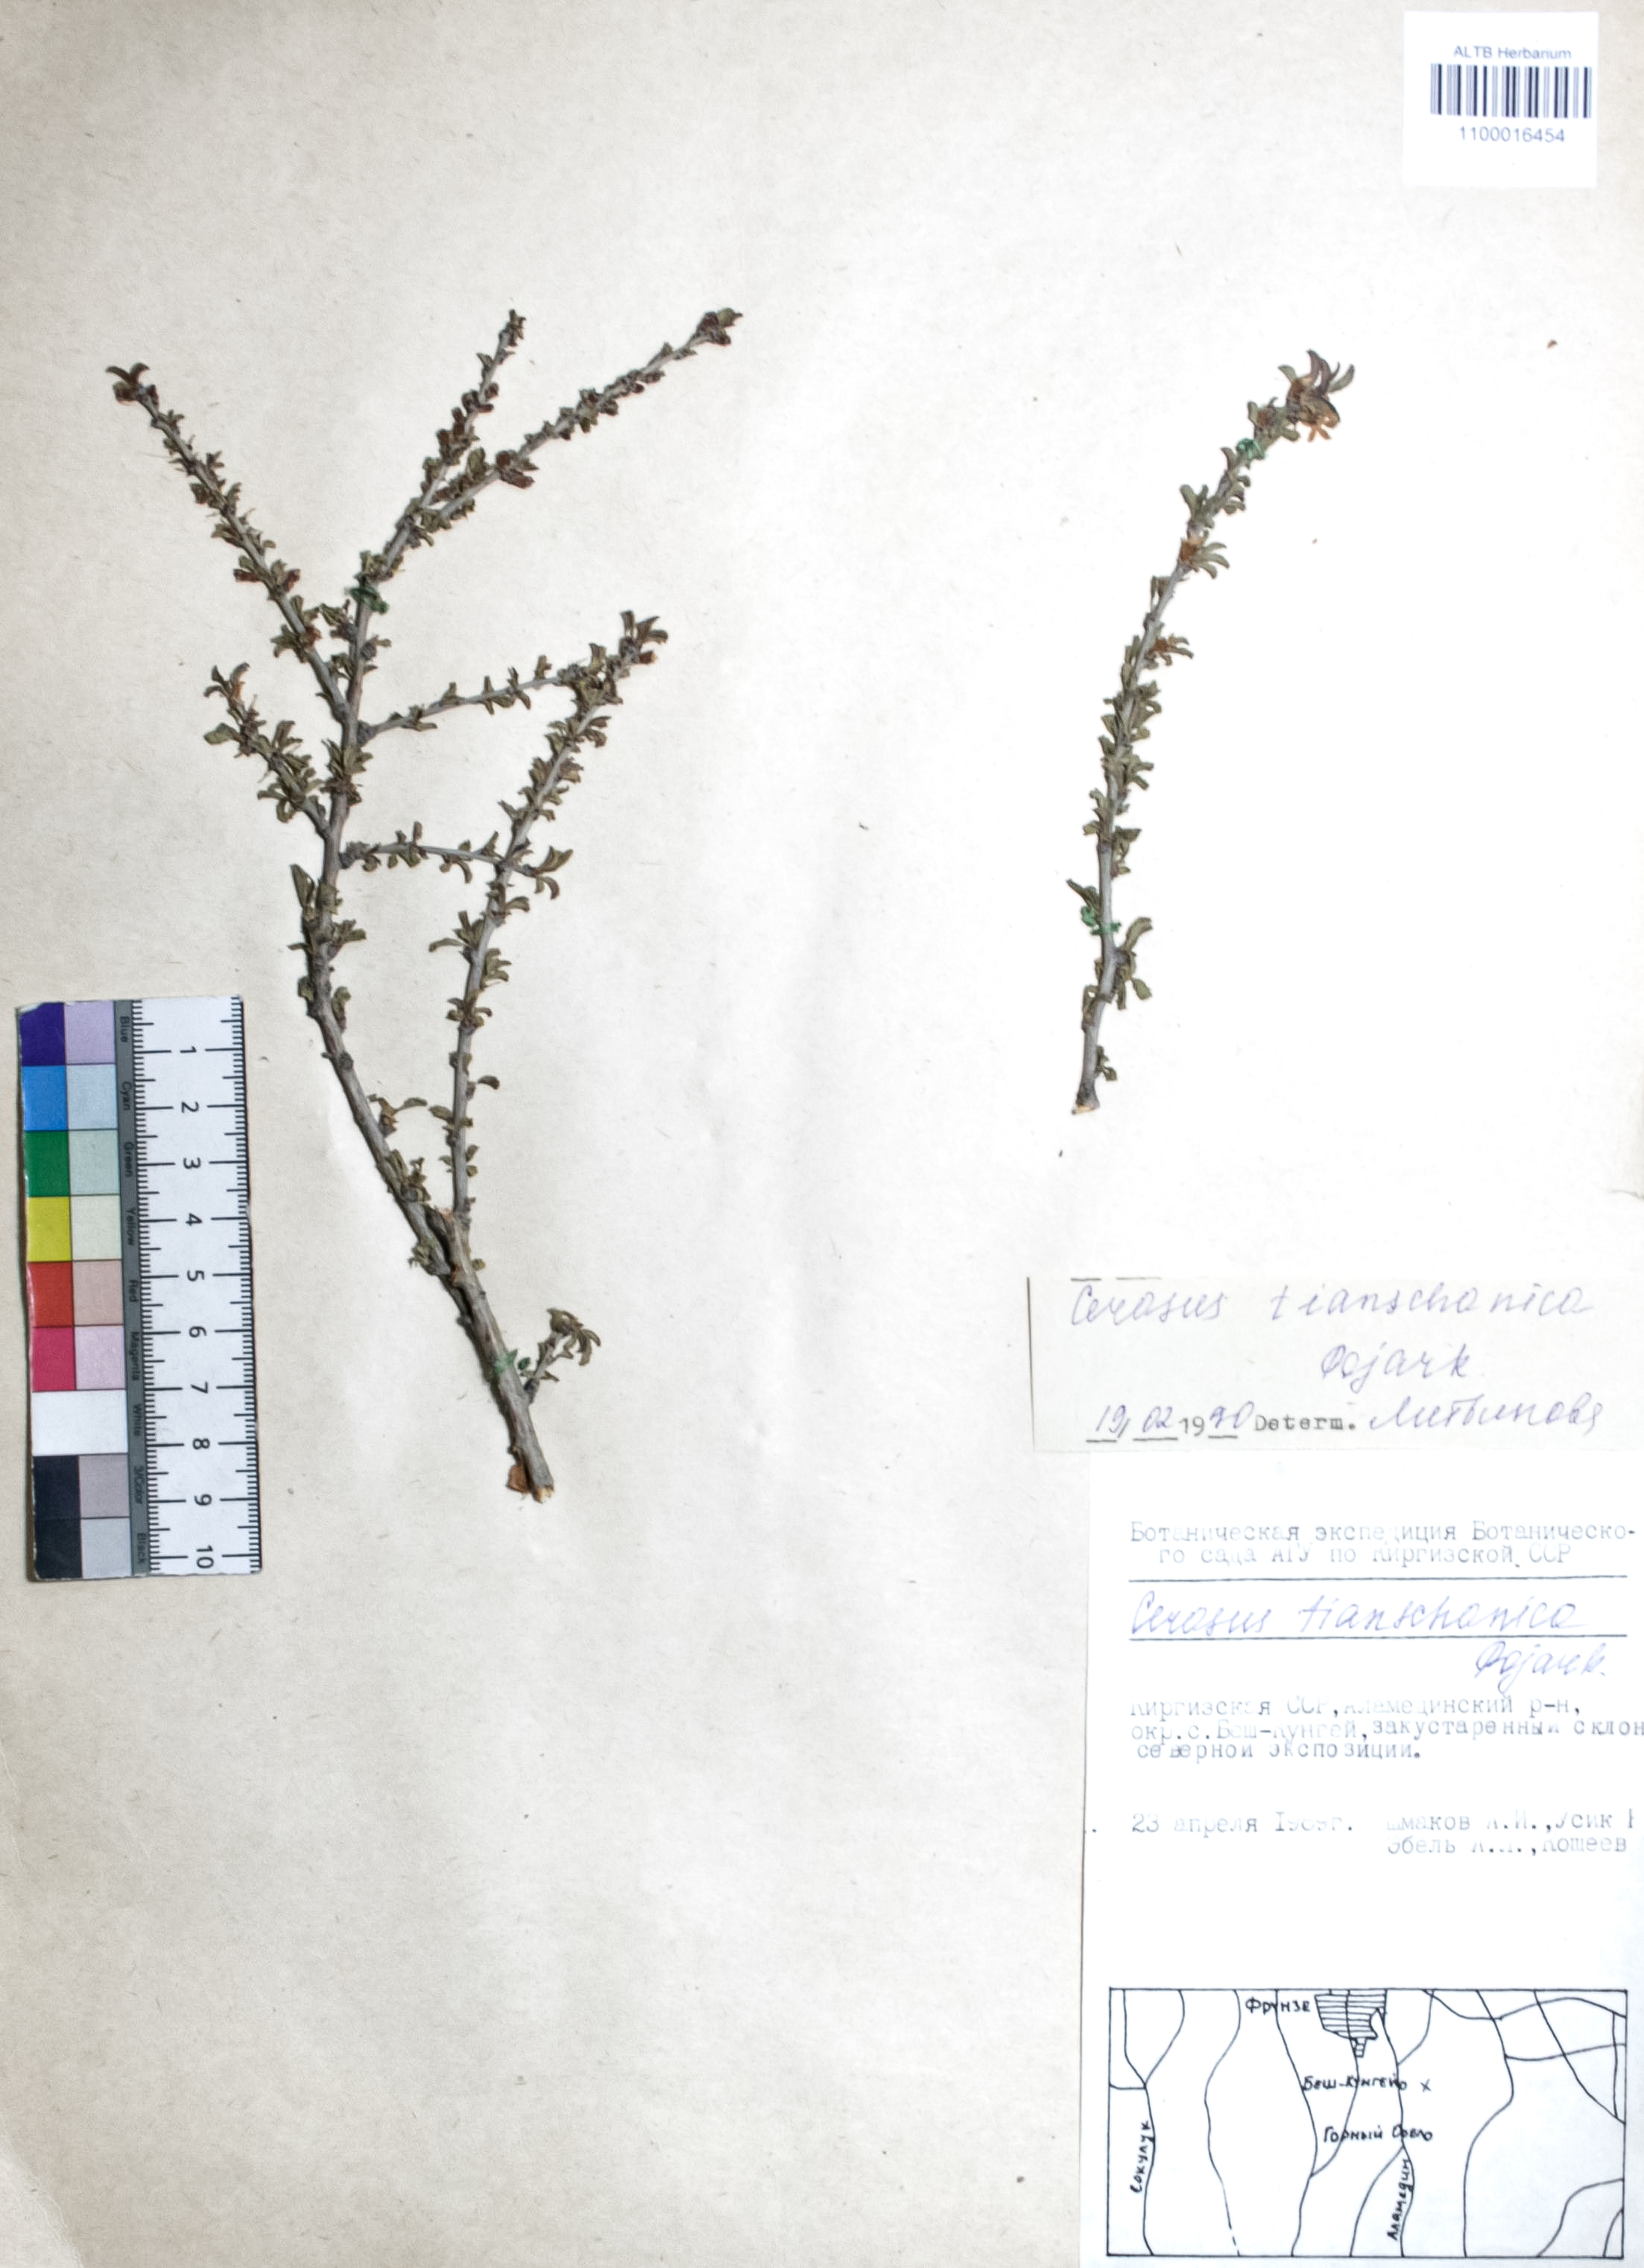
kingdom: Plantae
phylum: Tracheophyta
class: Magnoliopsida
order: Rosales
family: Rosaceae
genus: Prunus
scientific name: Prunus griffithii
